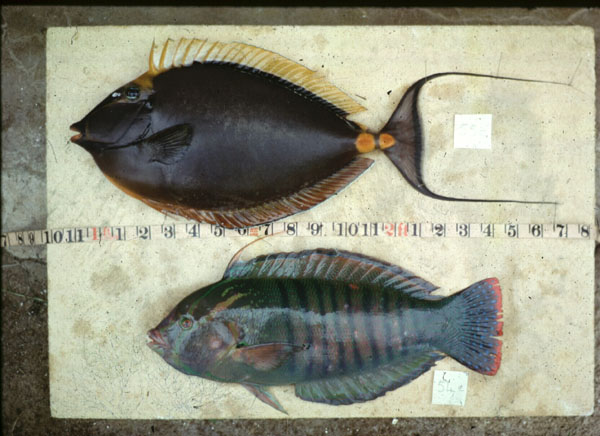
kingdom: Animalia
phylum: Chordata
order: Perciformes
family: Acanthuridae
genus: Naso
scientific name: Naso lituratus
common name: Orangespine unicornfish
